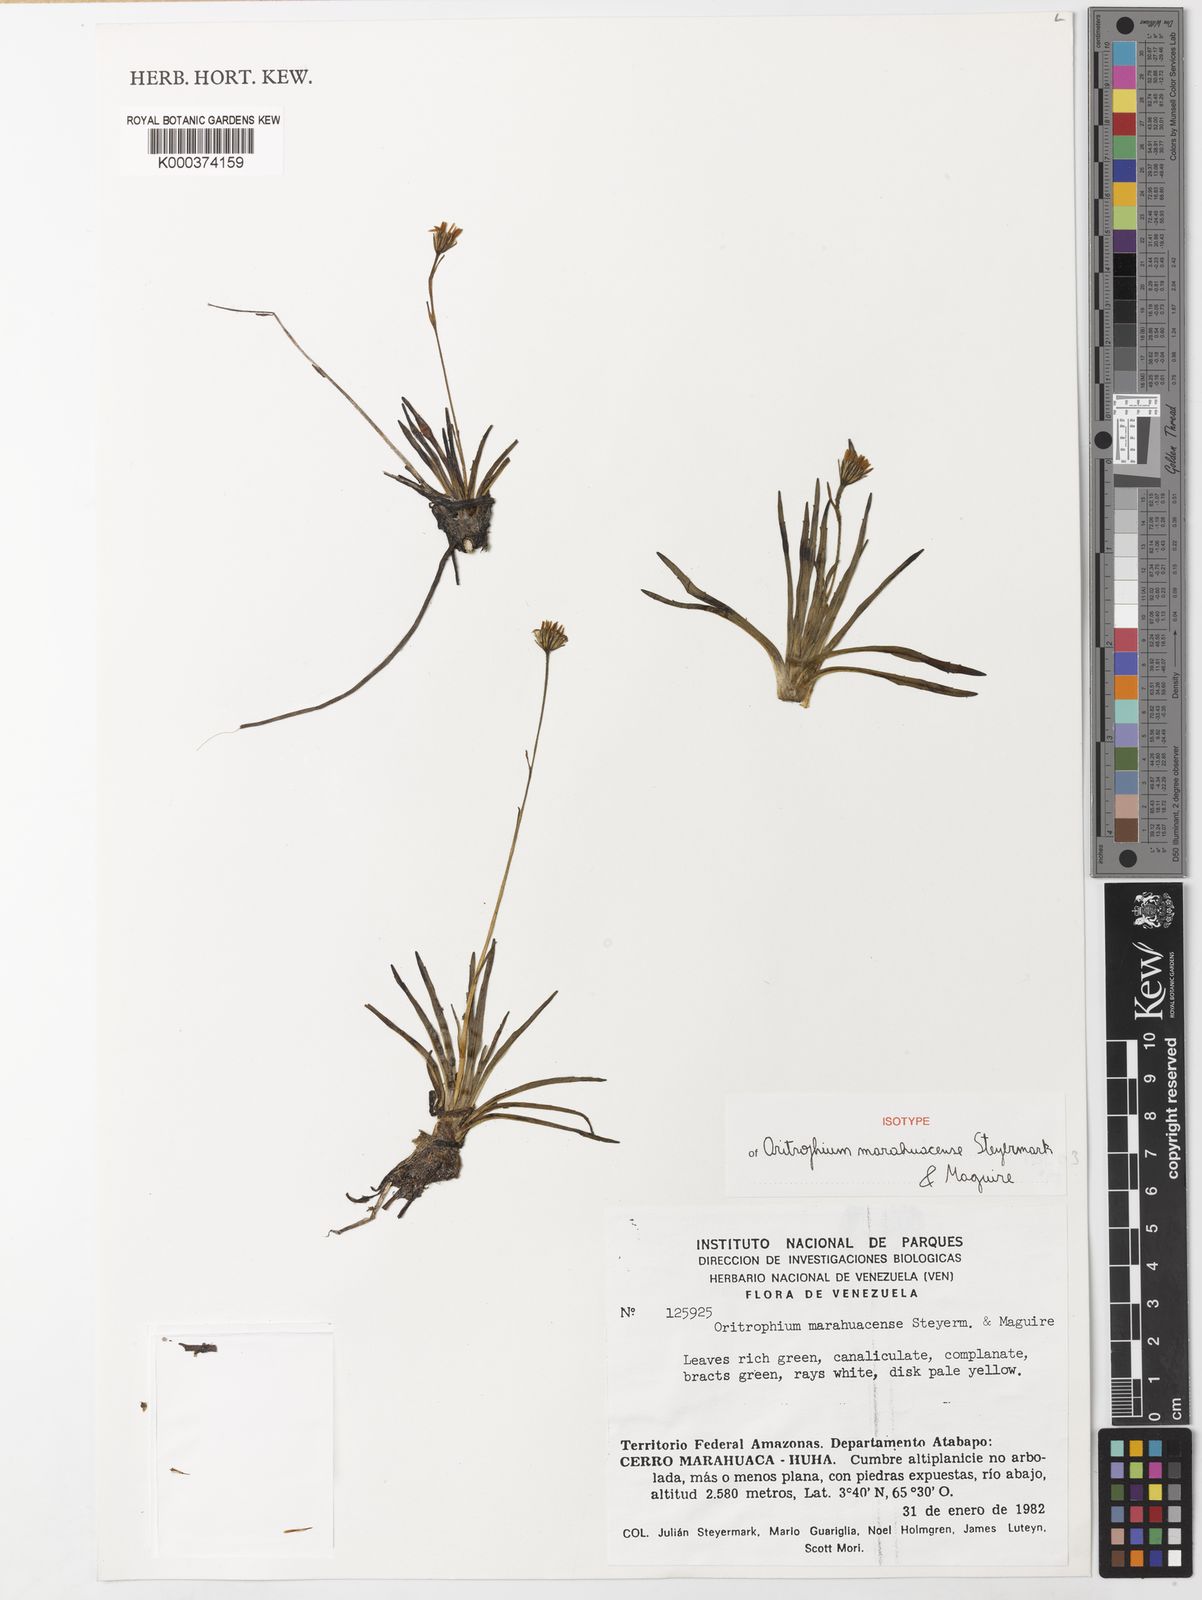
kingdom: Plantae
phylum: Tracheophyta
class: Magnoliopsida
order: Asterales
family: Asteraceae
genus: Oritrophium
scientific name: Oritrophium marahuacense
